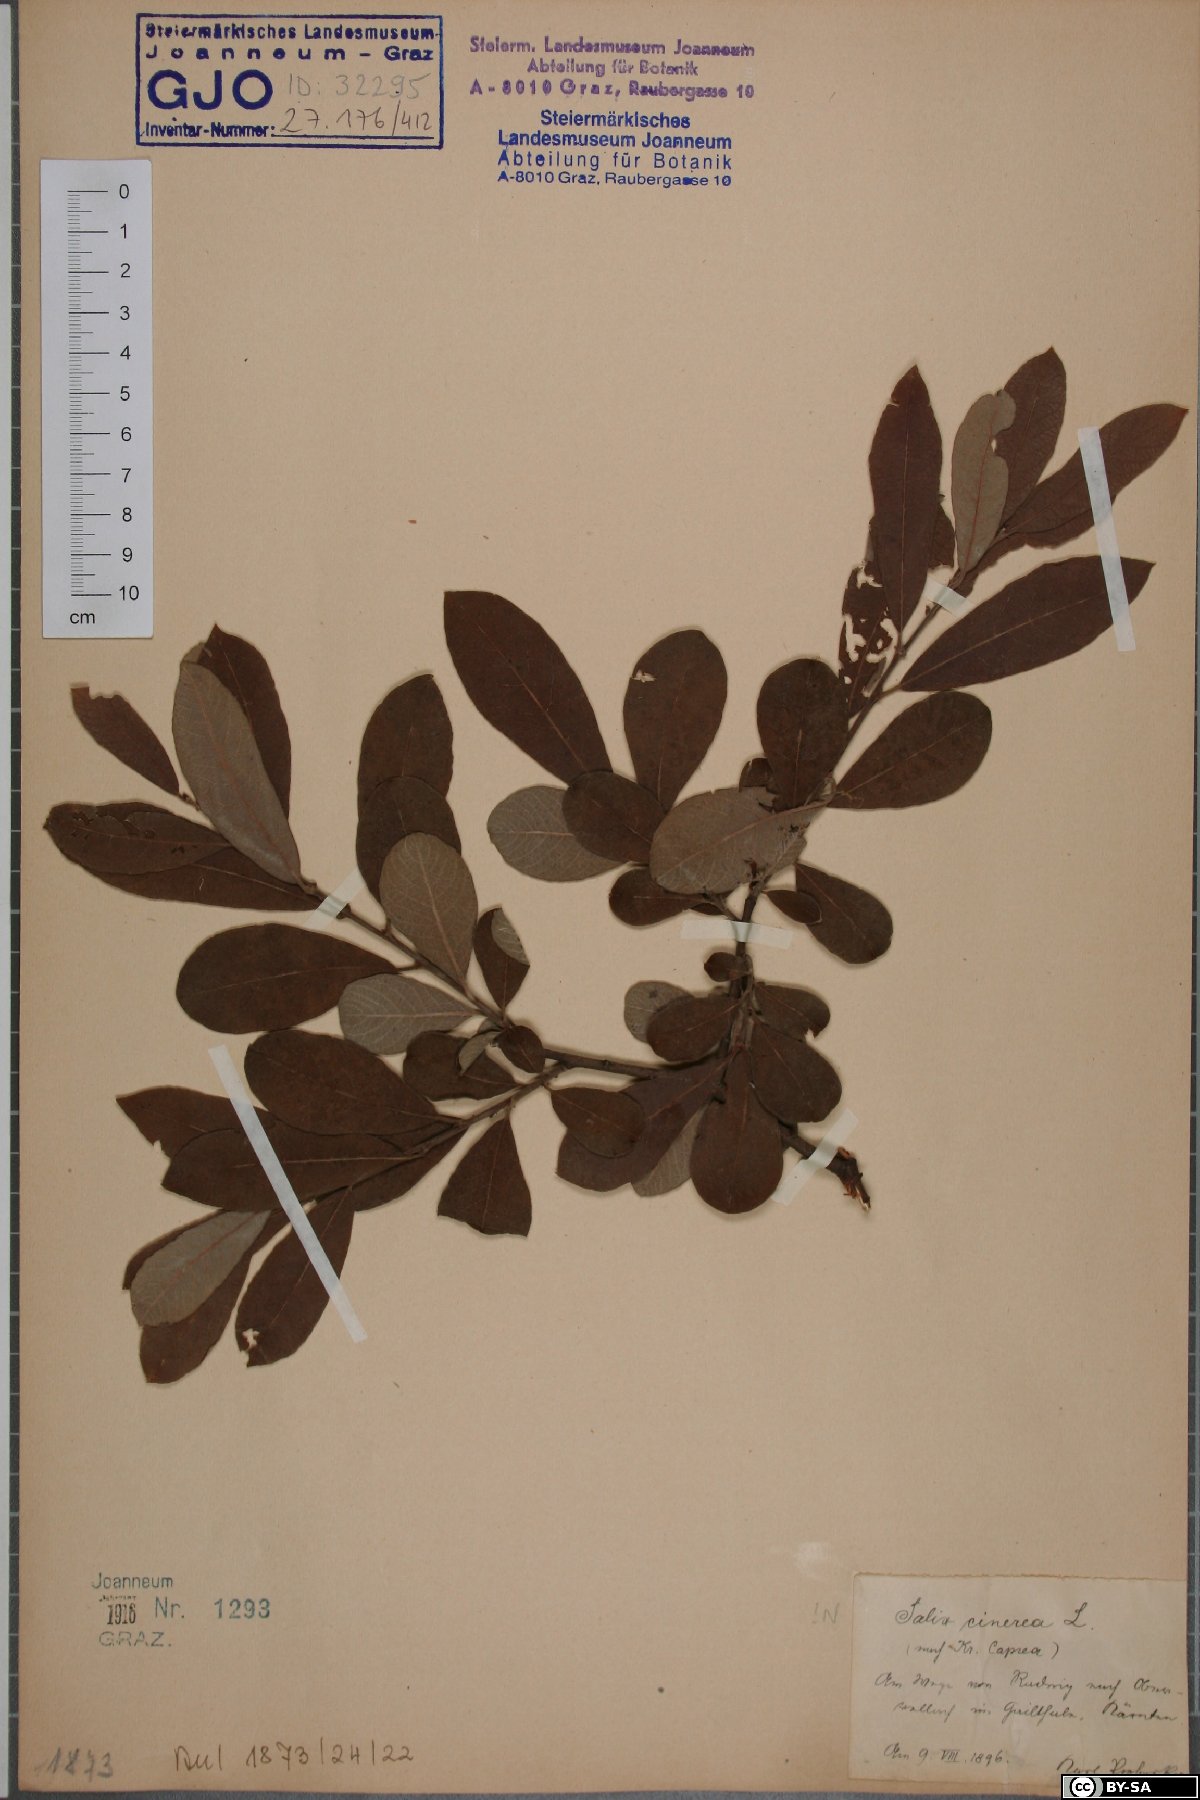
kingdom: Plantae
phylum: Tracheophyta
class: Magnoliopsida
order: Malpighiales
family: Salicaceae
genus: Salix
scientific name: Salix cinerea
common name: Common sallow
